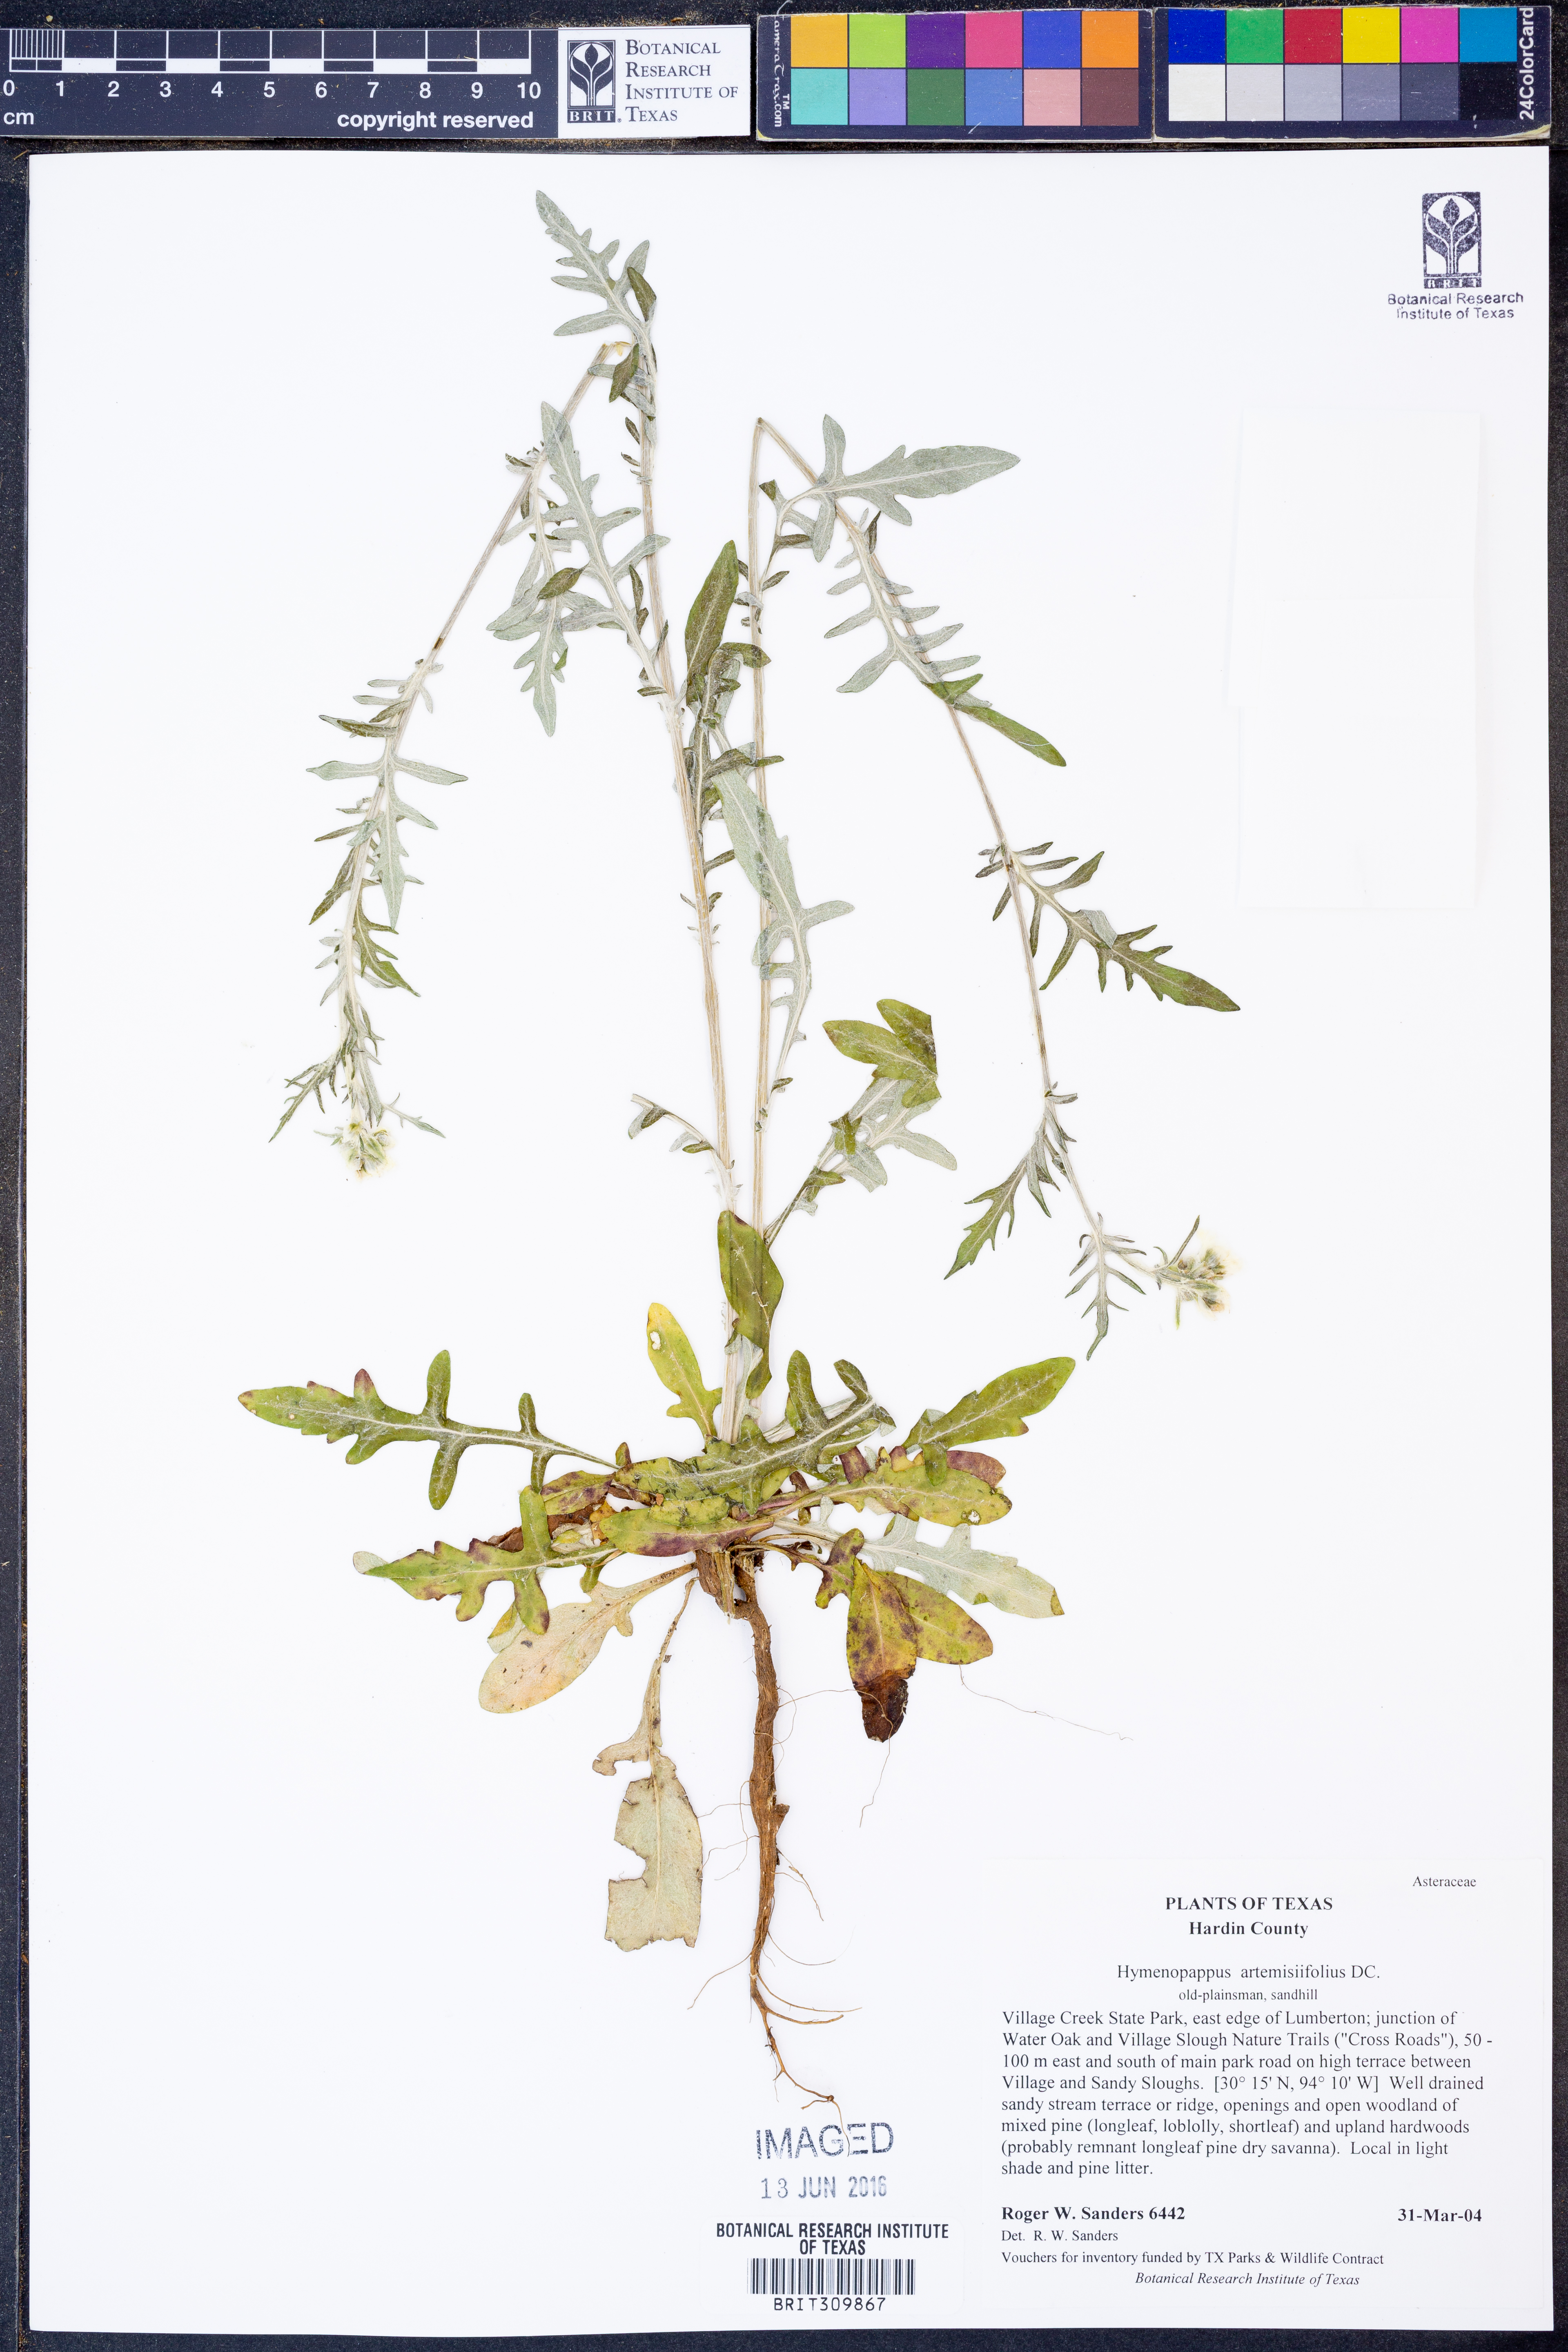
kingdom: Plantae
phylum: Tracheophyta
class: Magnoliopsida
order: Asterales
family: Asteraceae
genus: Hymenopappus
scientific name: Hymenopappus artemisiifolius
